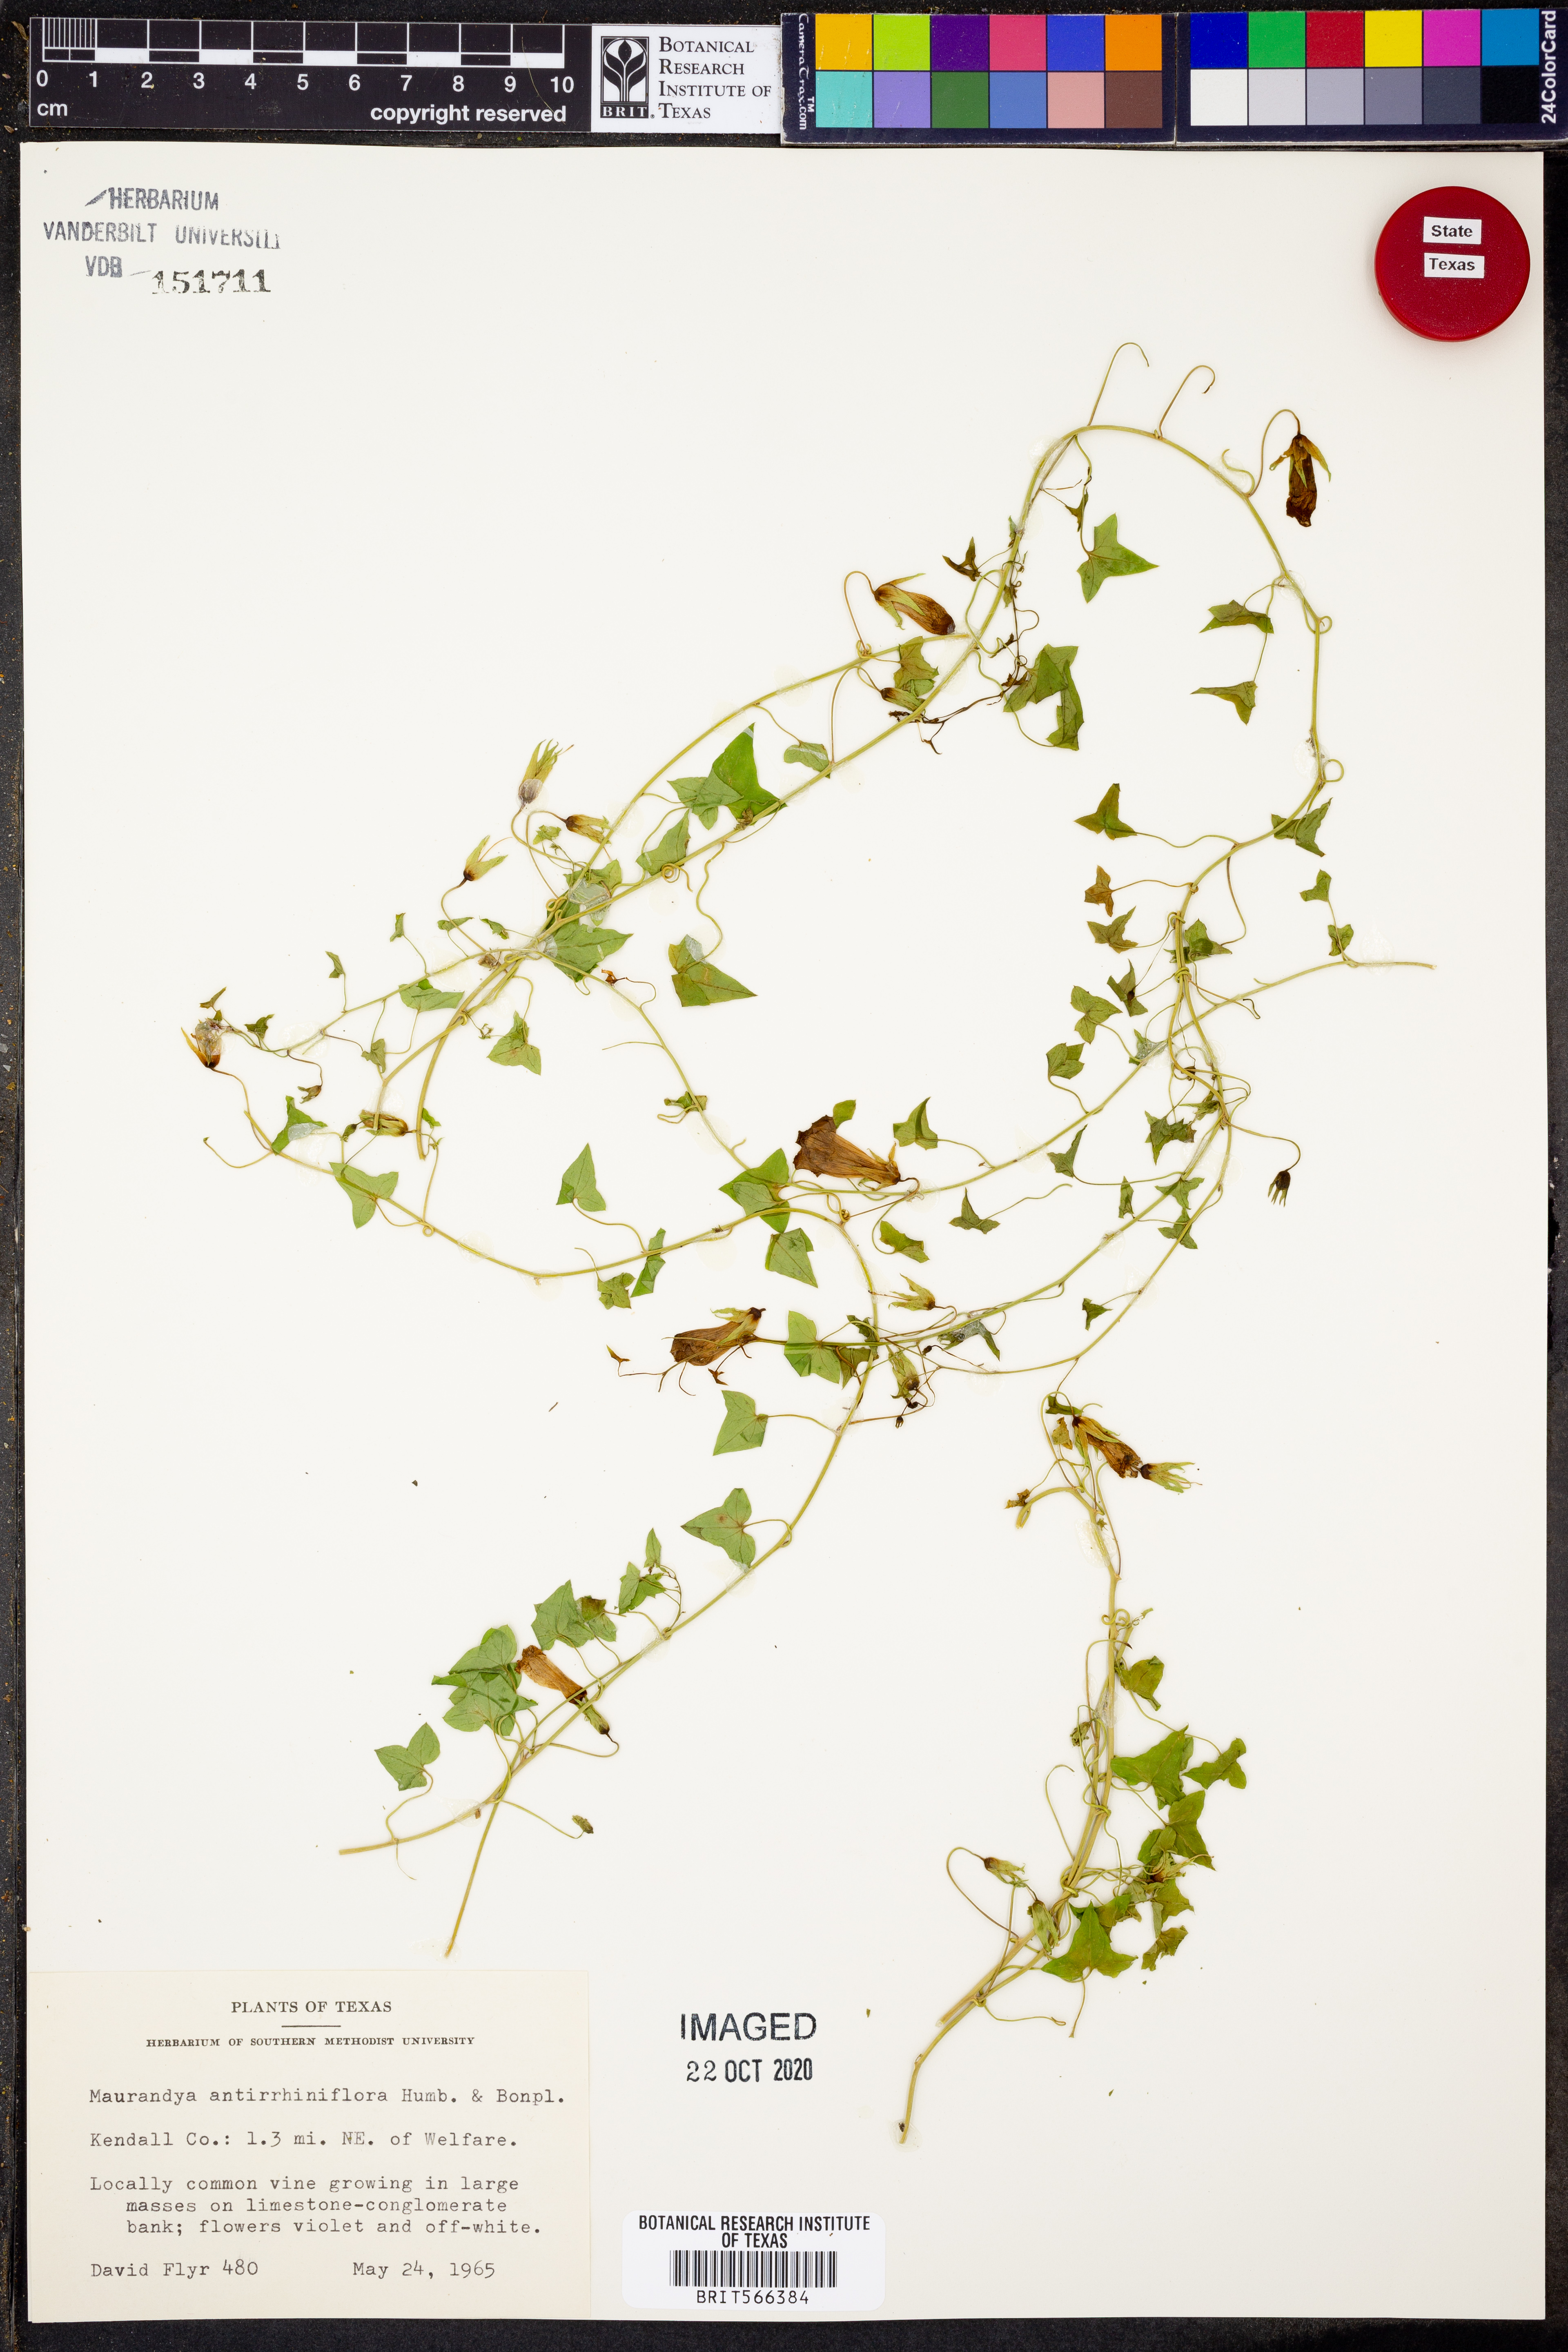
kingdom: Plantae
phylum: Tracheophyta
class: Magnoliopsida
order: Lamiales
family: Plantaginaceae
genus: Maurandella
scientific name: Maurandella antirrhiniflora
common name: Violet twining-snapdragon
